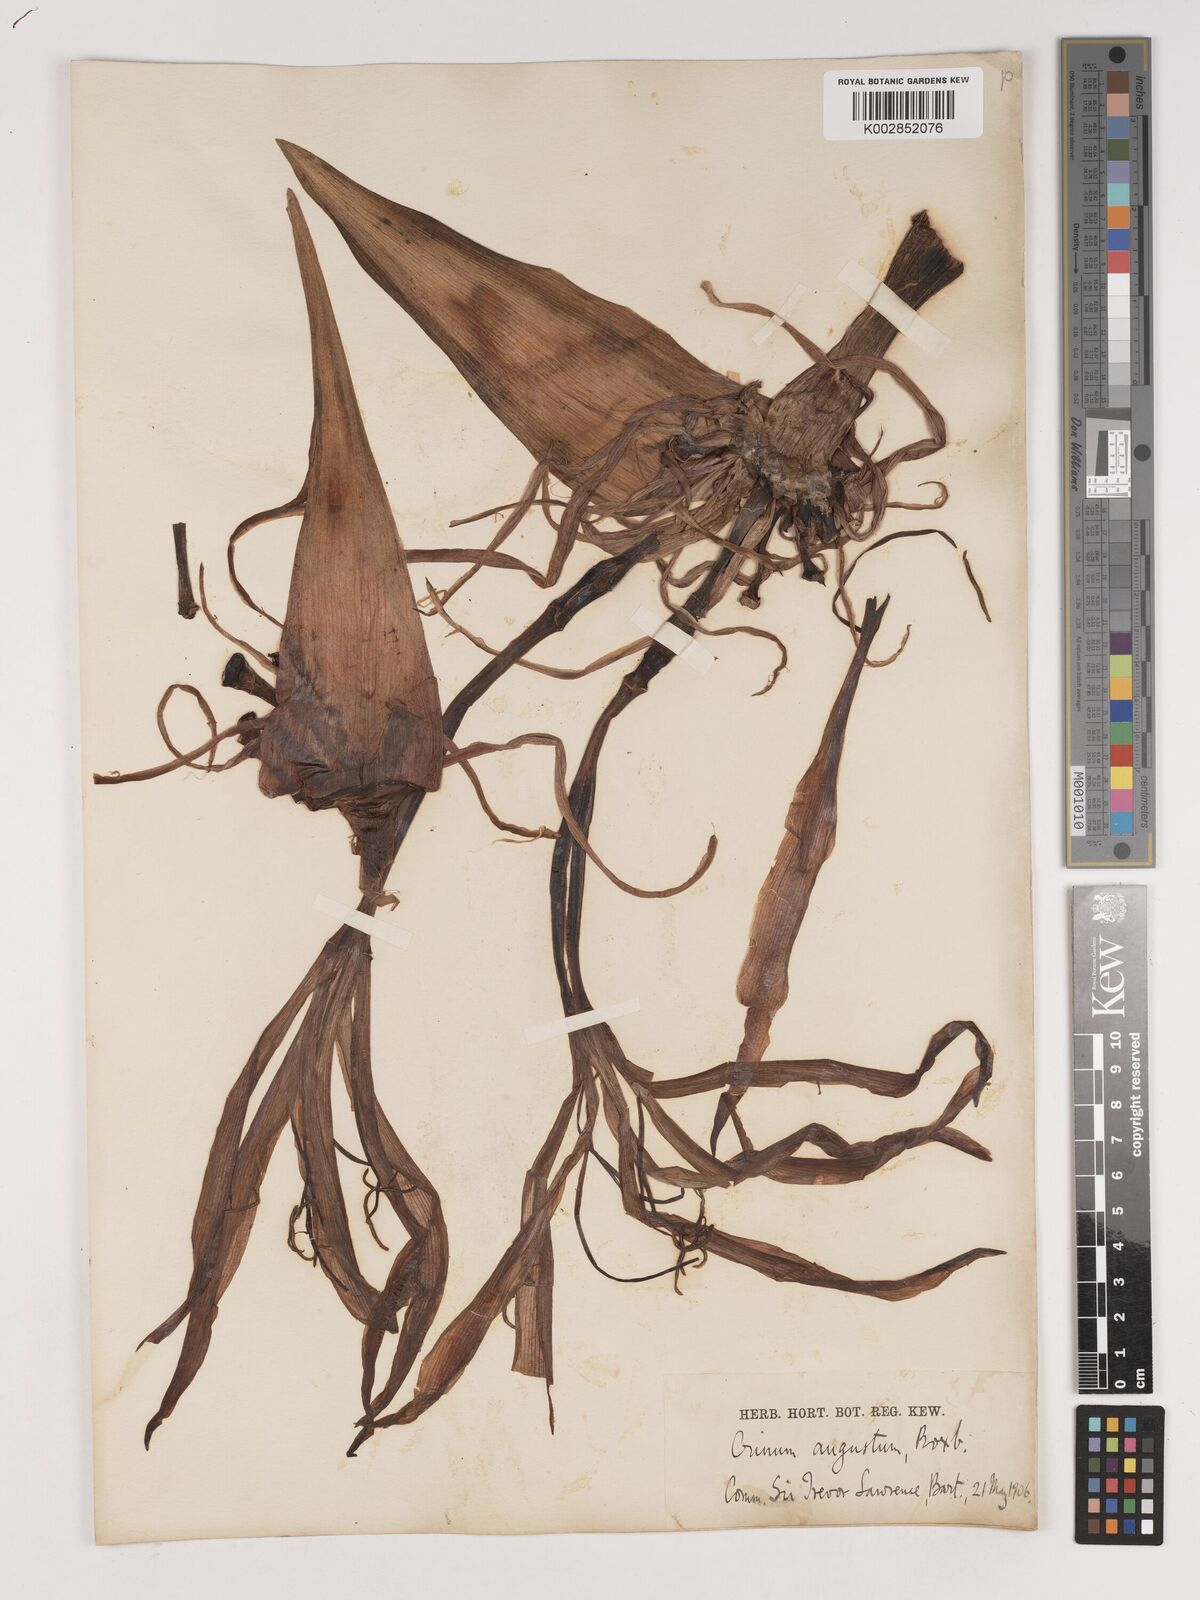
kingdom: Plantae
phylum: Tracheophyta
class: Liliopsida
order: Asparagales
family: Amaryllidaceae
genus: Crinum
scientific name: Crinum amabile
